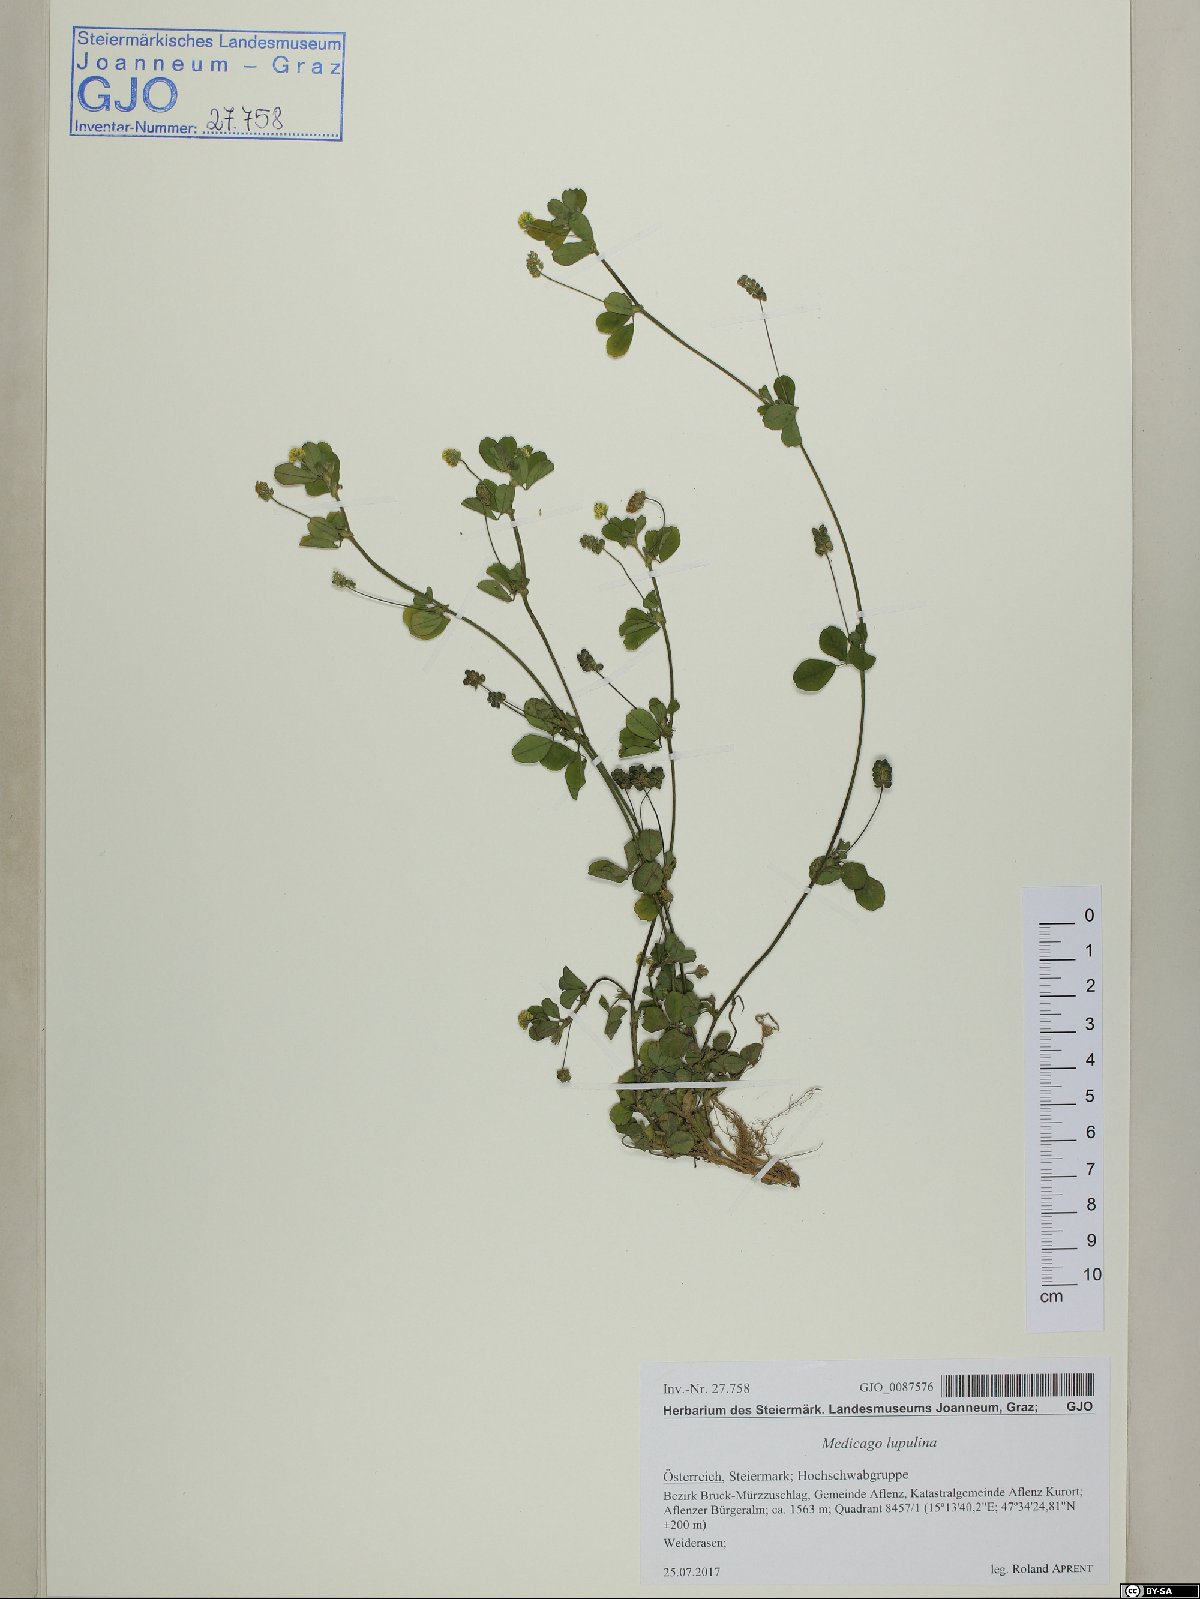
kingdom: Plantae
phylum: Tracheophyta
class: Magnoliopsida
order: Fabales
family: Fabaceae
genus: Medicago
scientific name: Medicago lupulina
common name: Black medick
